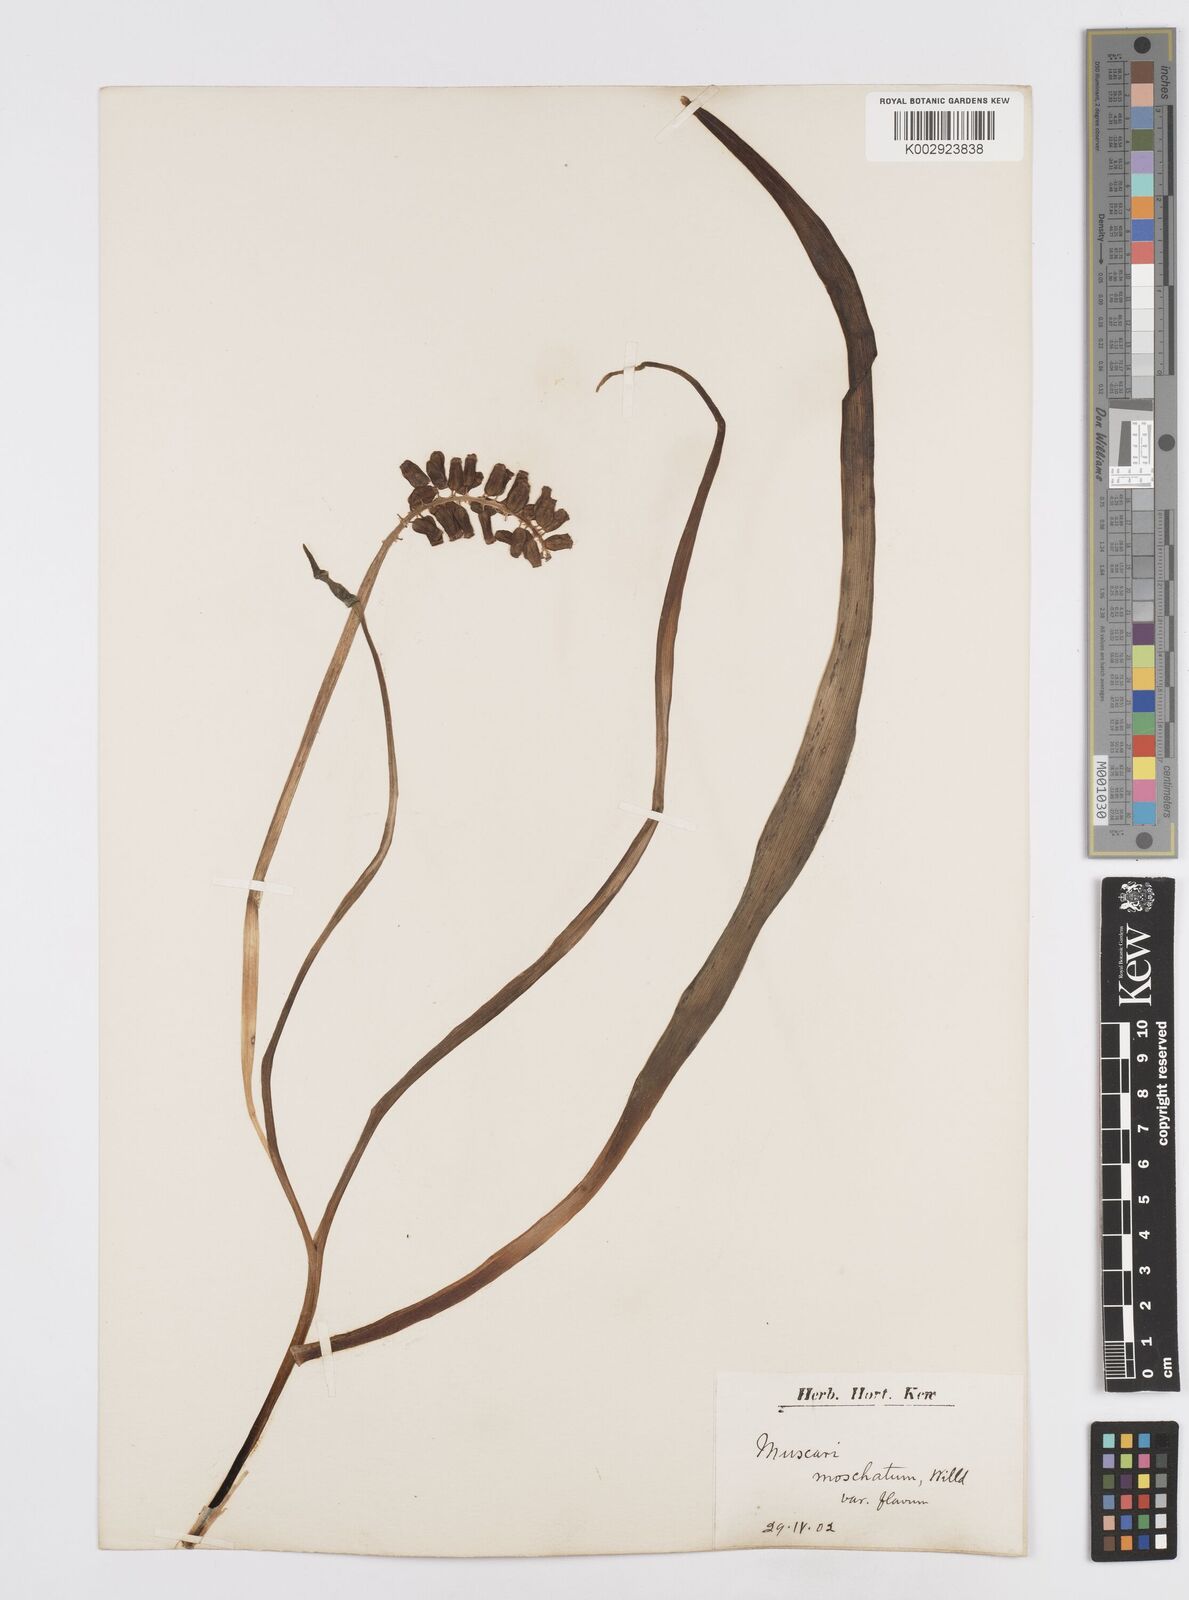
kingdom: Plantae
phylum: Tracheophyta
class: Liliopsida
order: Asparagales
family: Asparagaceae
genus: Muscarimia
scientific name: Muscarimia muscari
